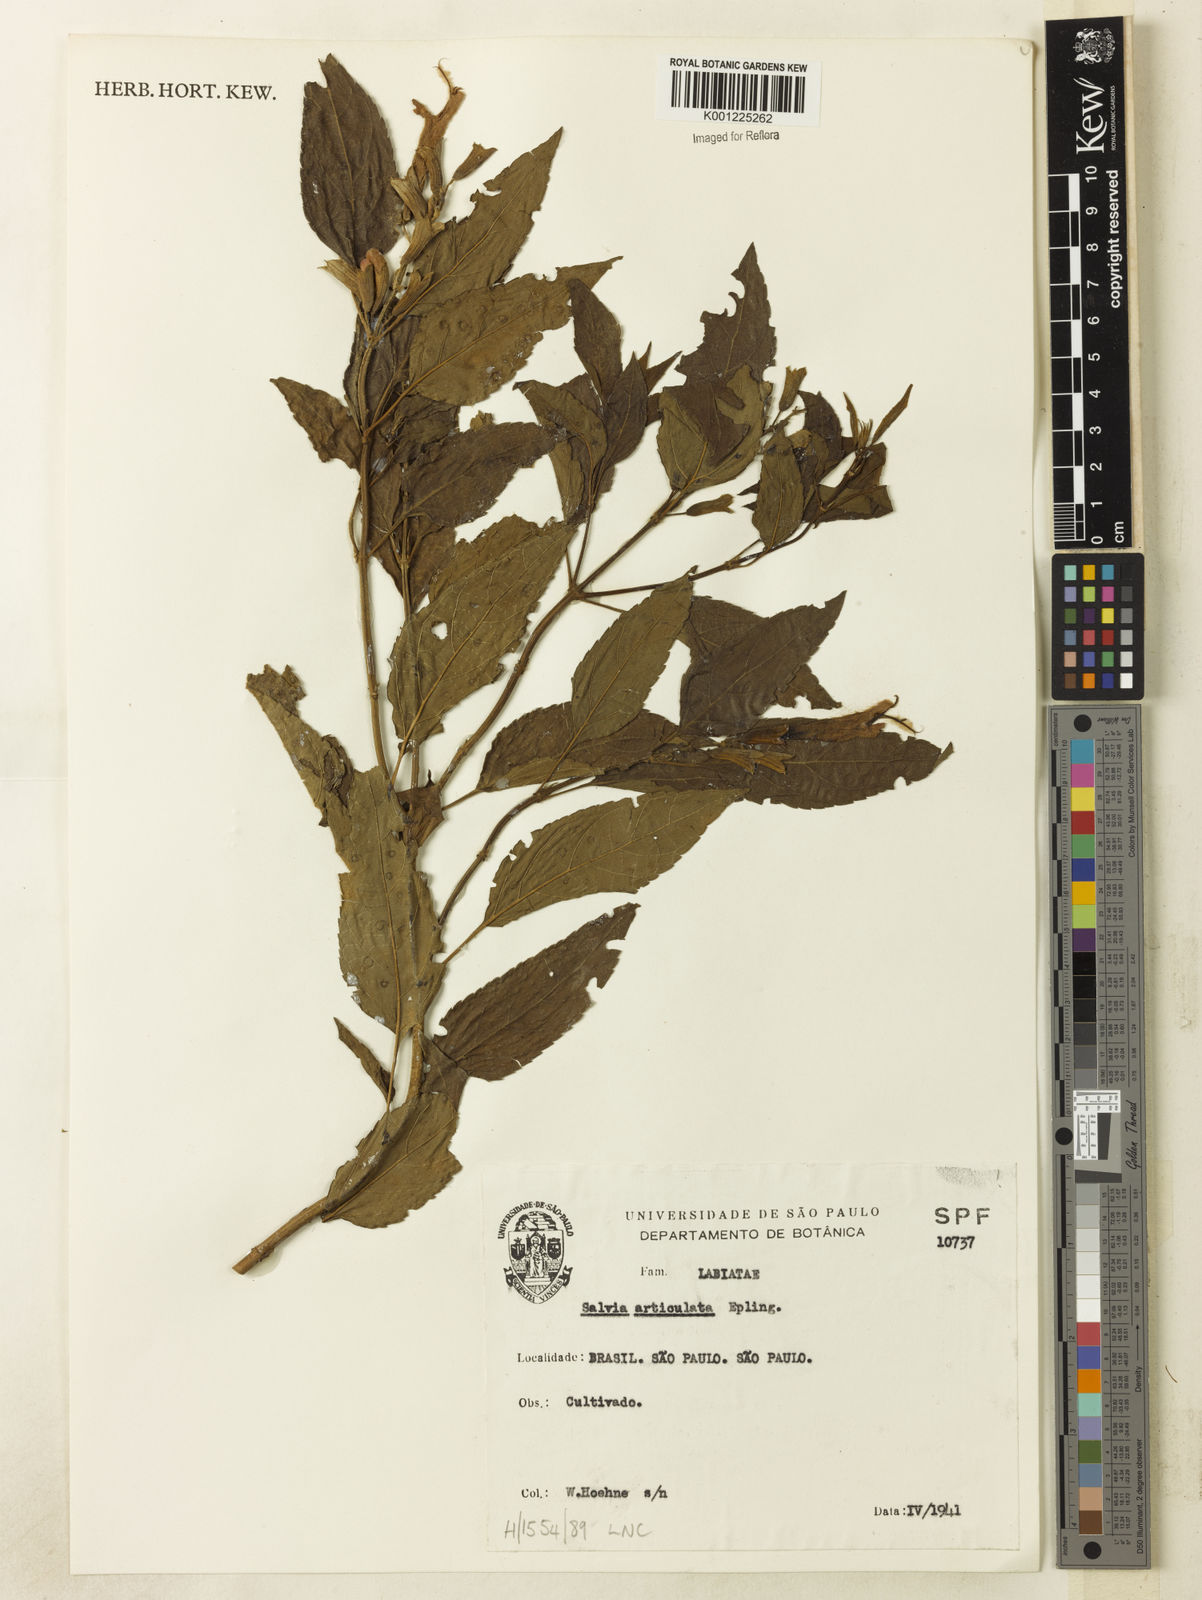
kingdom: Plantae
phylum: Tracheophyta
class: Magnoliopsida
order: Lamiales
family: Lamiaceae
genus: Salvia
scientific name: Salvia articulata
